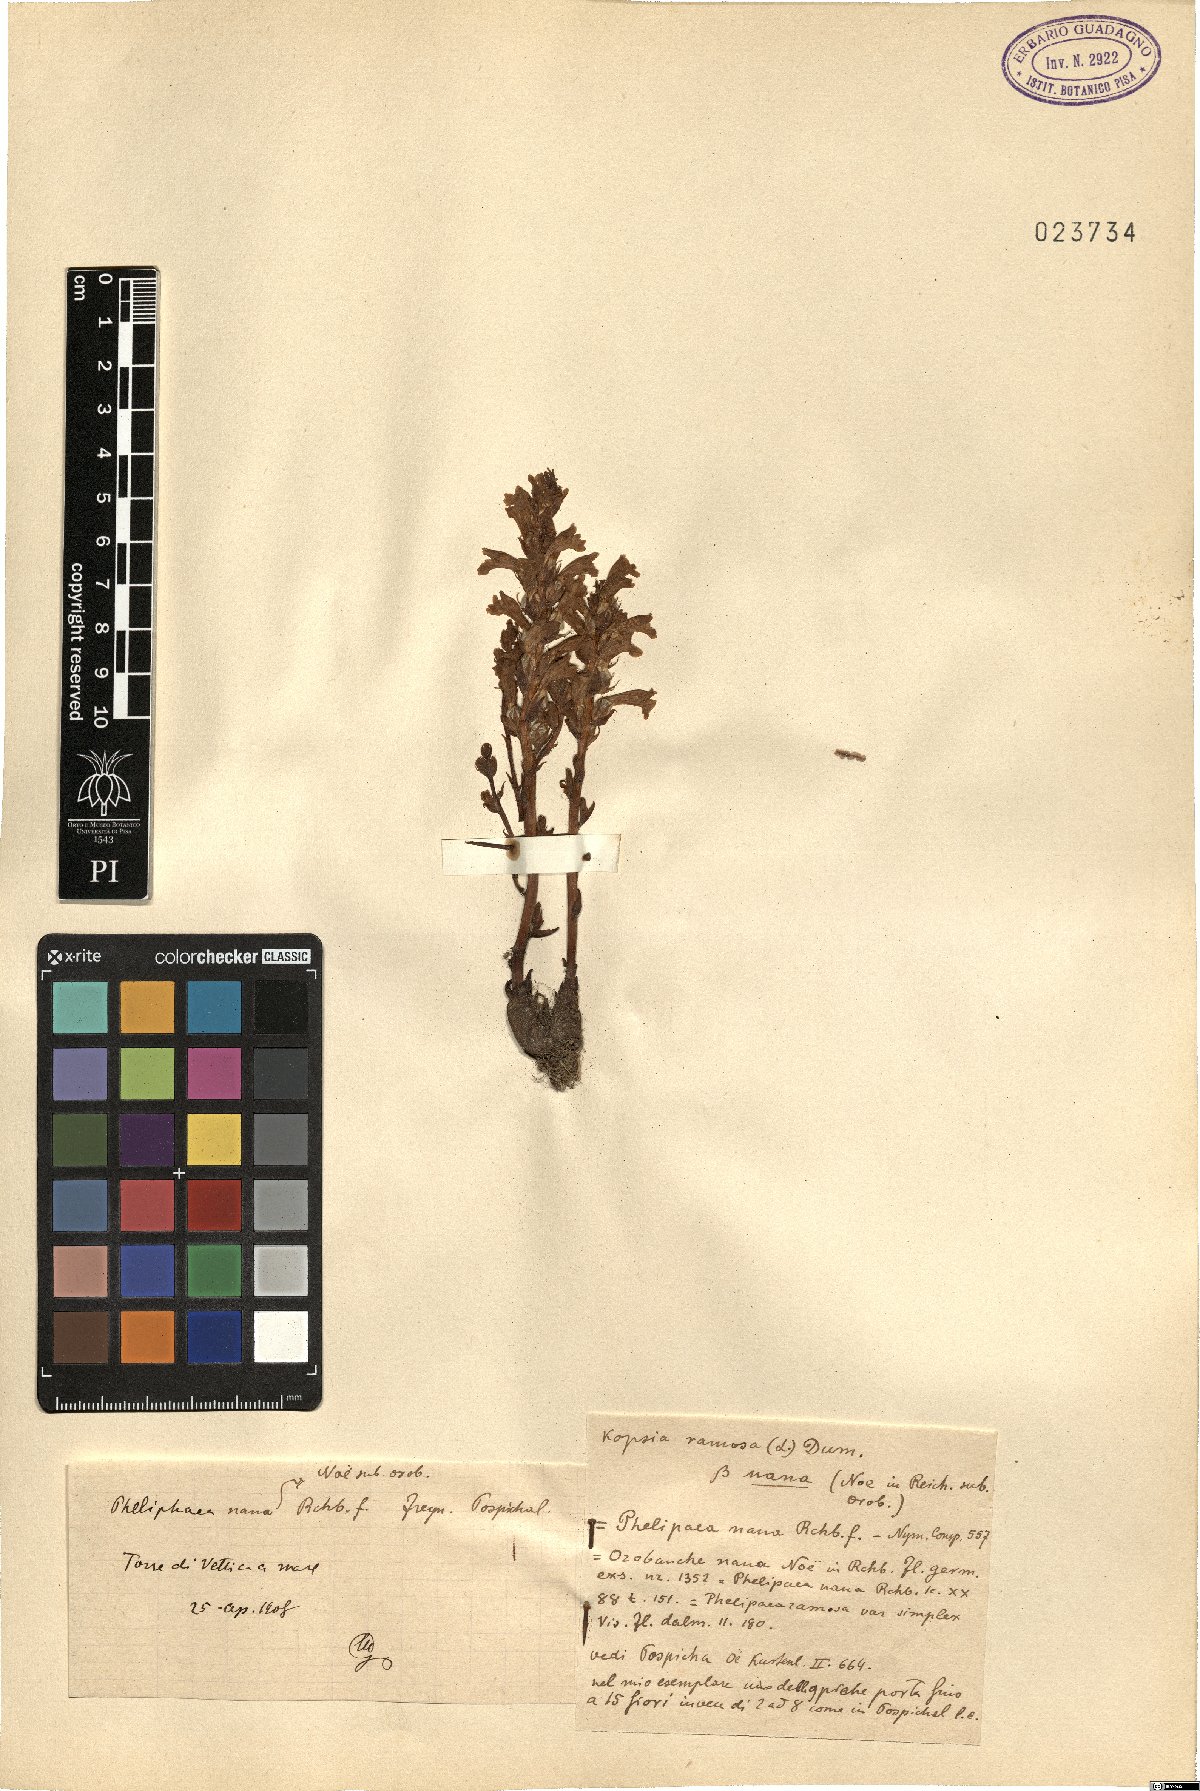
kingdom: Plantae
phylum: Tracheophyta
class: Magnoliopsida
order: Lamiales
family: Orobanchaceae
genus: Phelipanche
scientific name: Phelipanche mutelii
